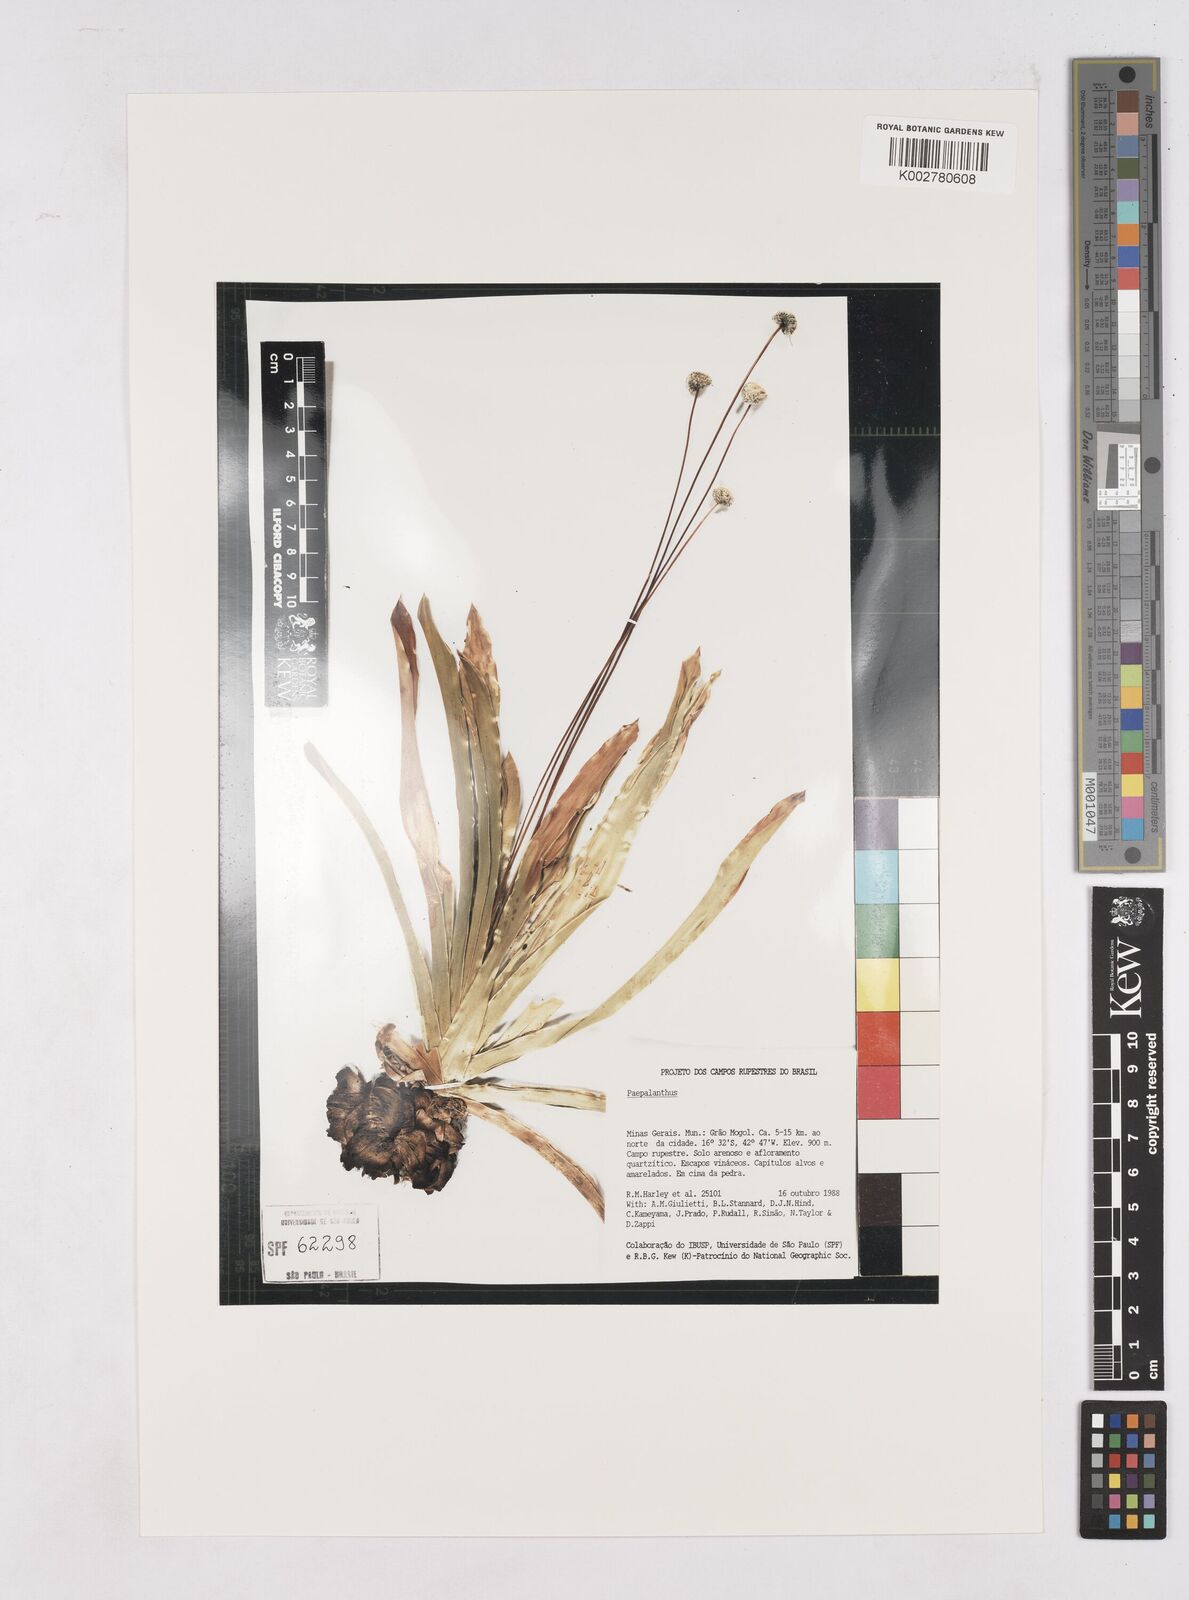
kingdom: Plantae
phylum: Tracheophyta
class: Liliopsida
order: Poales
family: Eriocaulaceae
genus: Paepalanthus
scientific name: Paepalanthus
